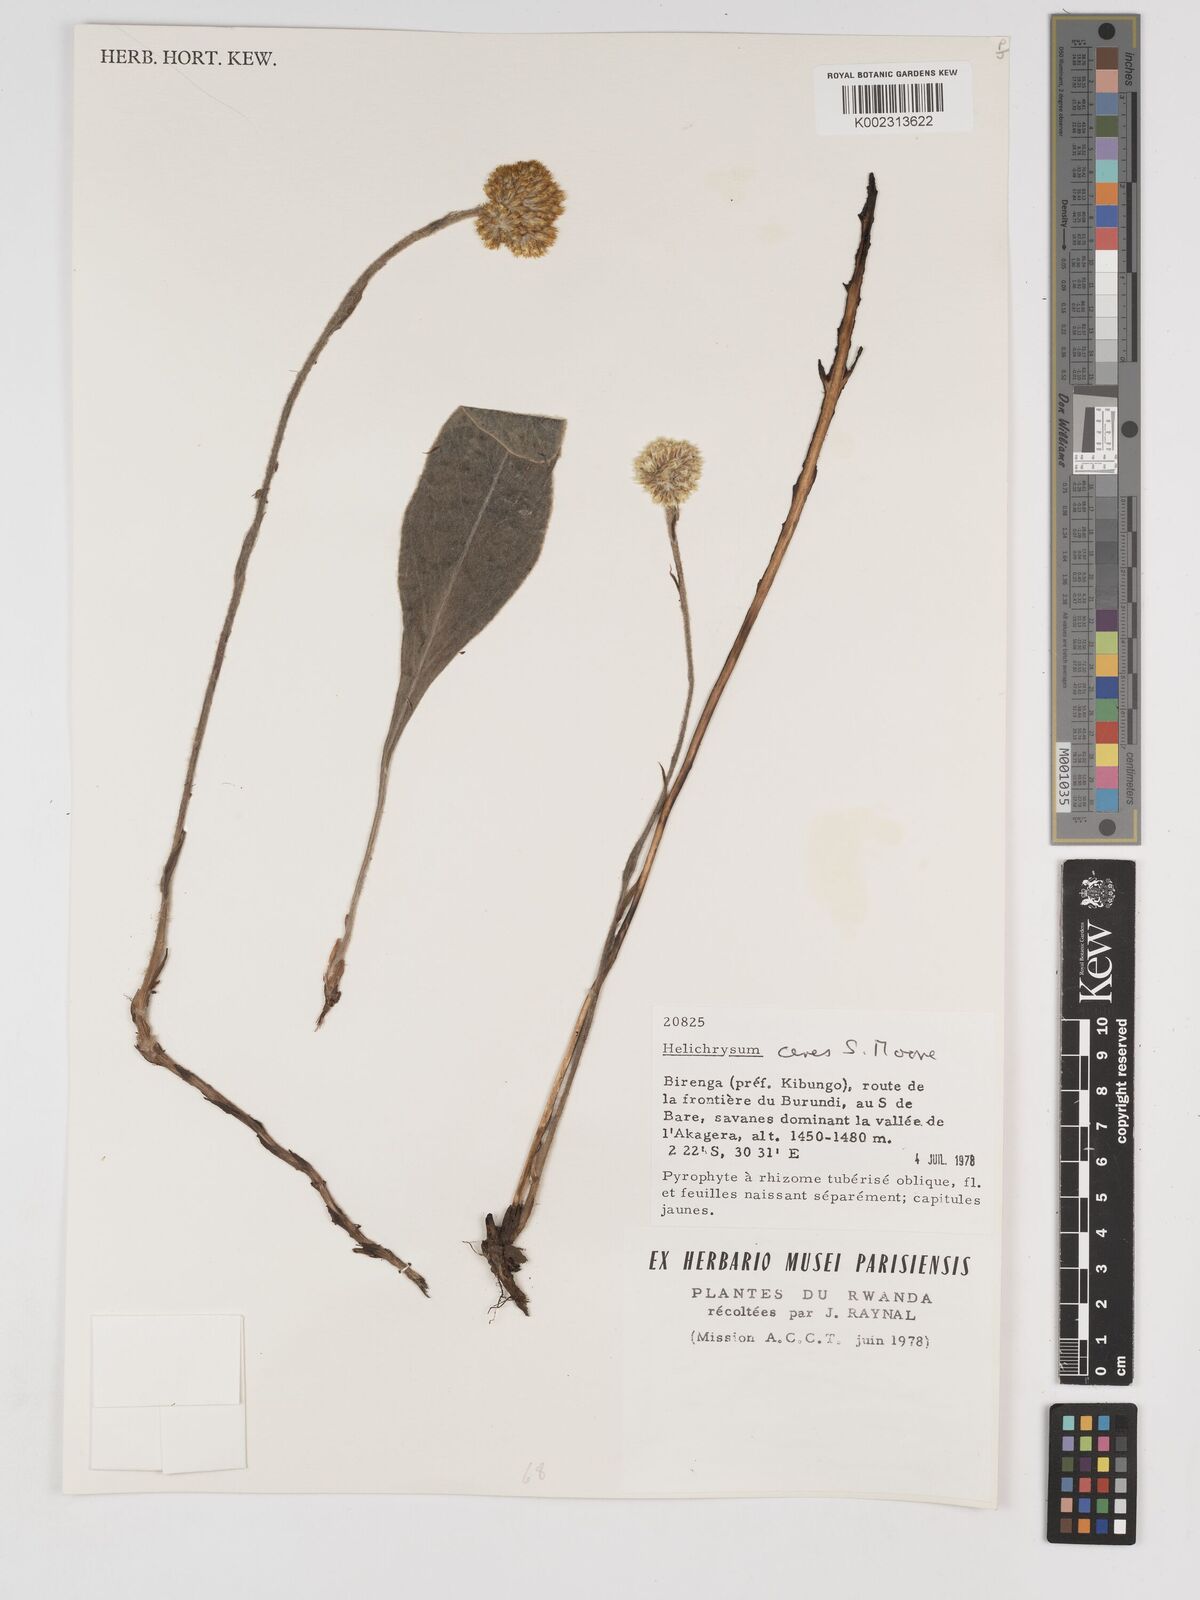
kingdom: Plantae
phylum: Tracheophyta
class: Magnoliopsida
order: Asterales
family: Asteraceae
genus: Helichrysum
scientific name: Helichrysum mechowianum
